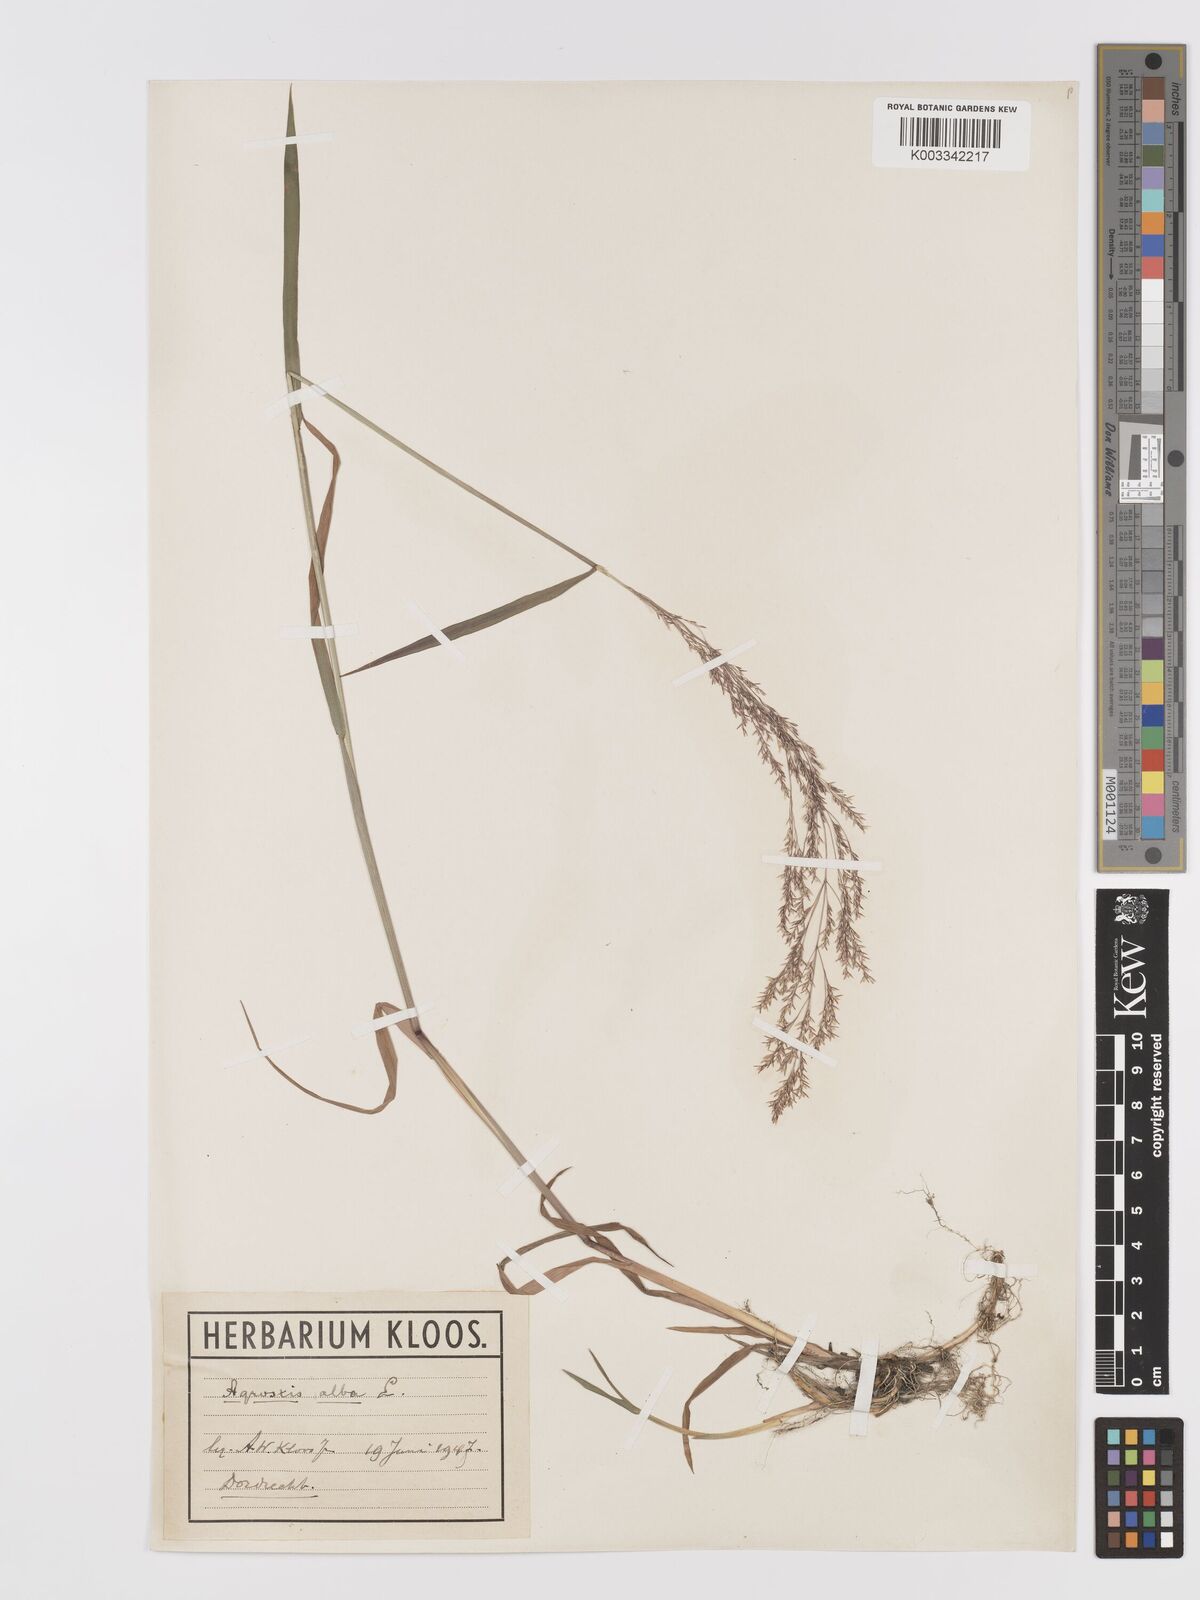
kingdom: Plantae
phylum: Tracheophyta
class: Liliopsida
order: Poales
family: Poaceae
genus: Agrostis
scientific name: Agrostis stolonifera
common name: Creeping bentgrass
